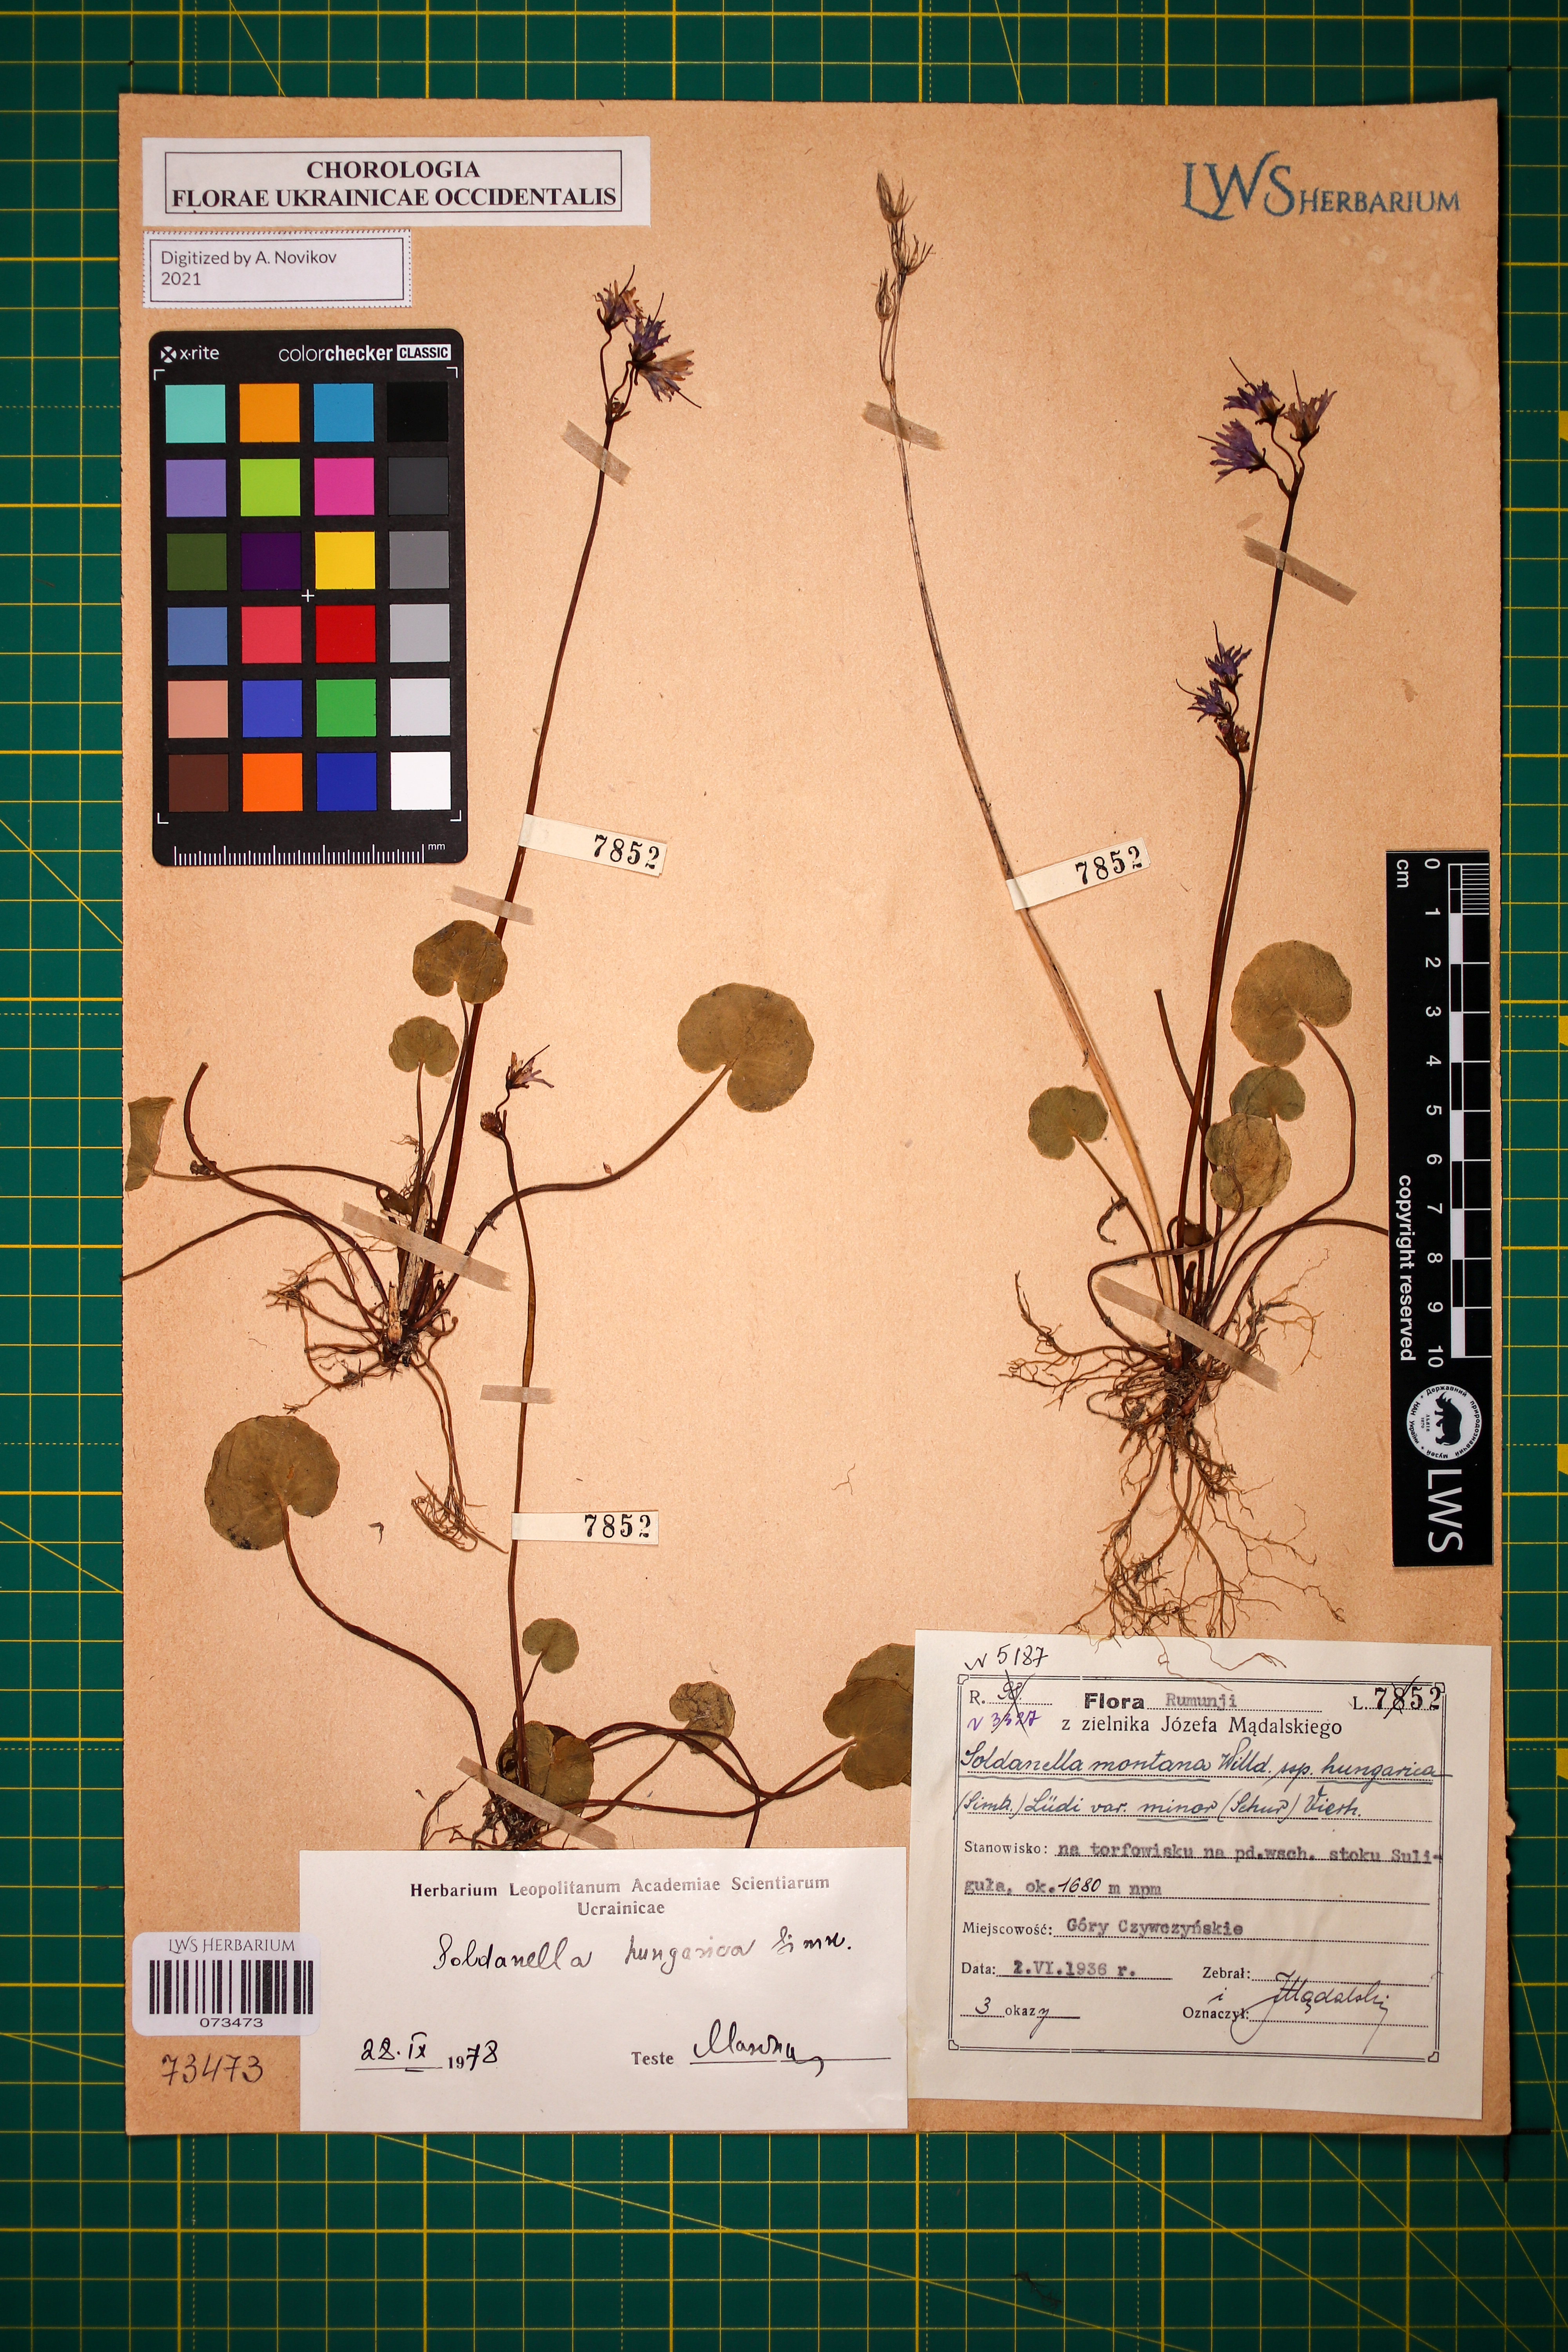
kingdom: Plantae
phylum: Tracheophyta
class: Magnoliopsida
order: Ericales
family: Primulaceae
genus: Soldanella
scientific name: Soldanella hungarica
